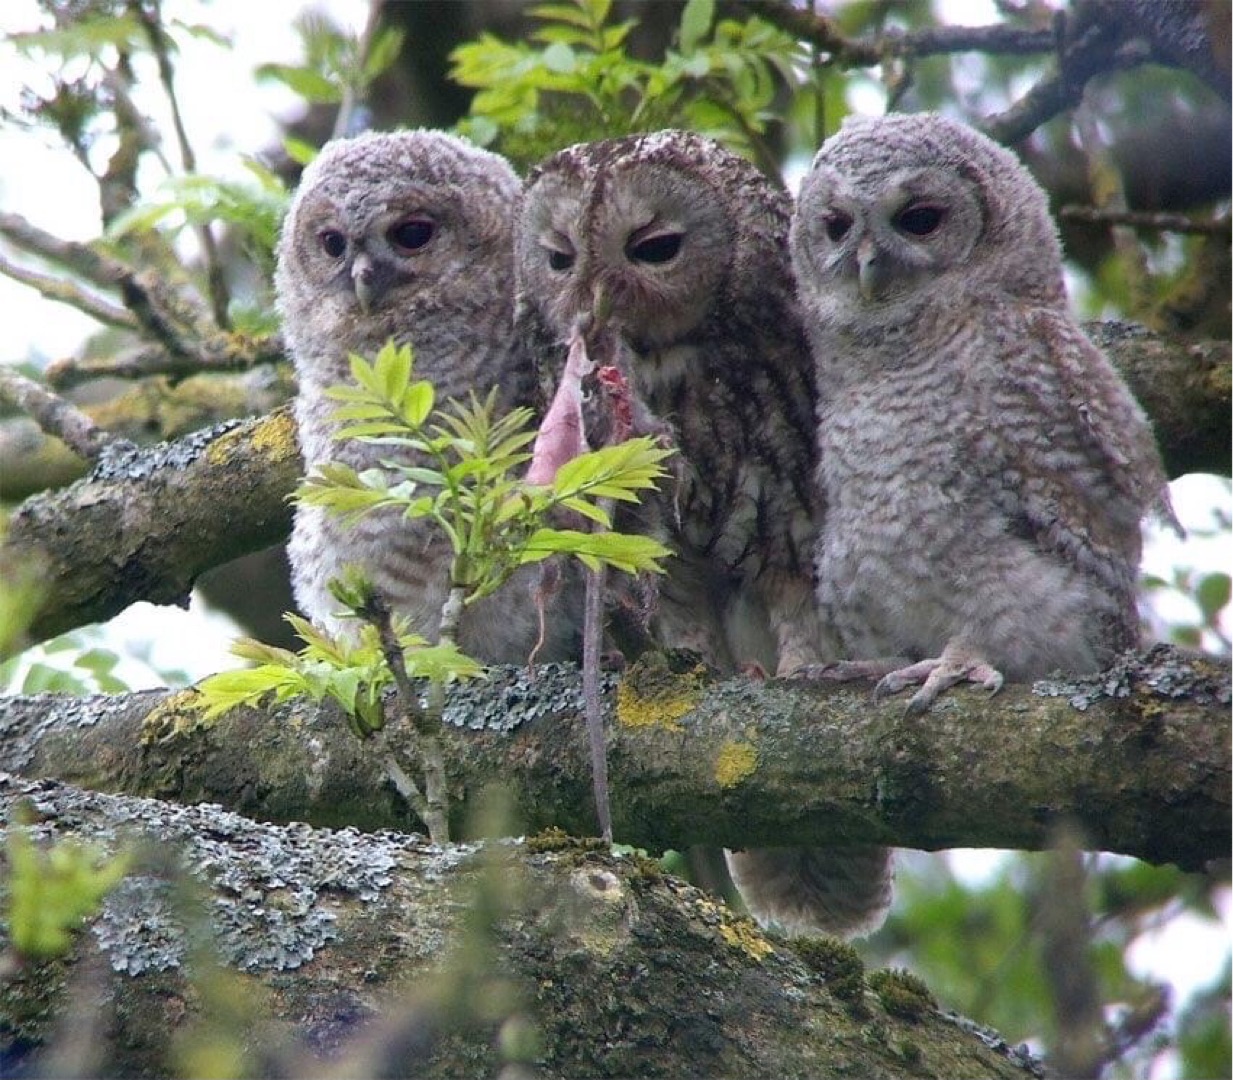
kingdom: Animalia
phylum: Chordata
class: Aves
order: Strigiformes
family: Strigidae
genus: Strix
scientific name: Strix aluco
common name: Natugle
